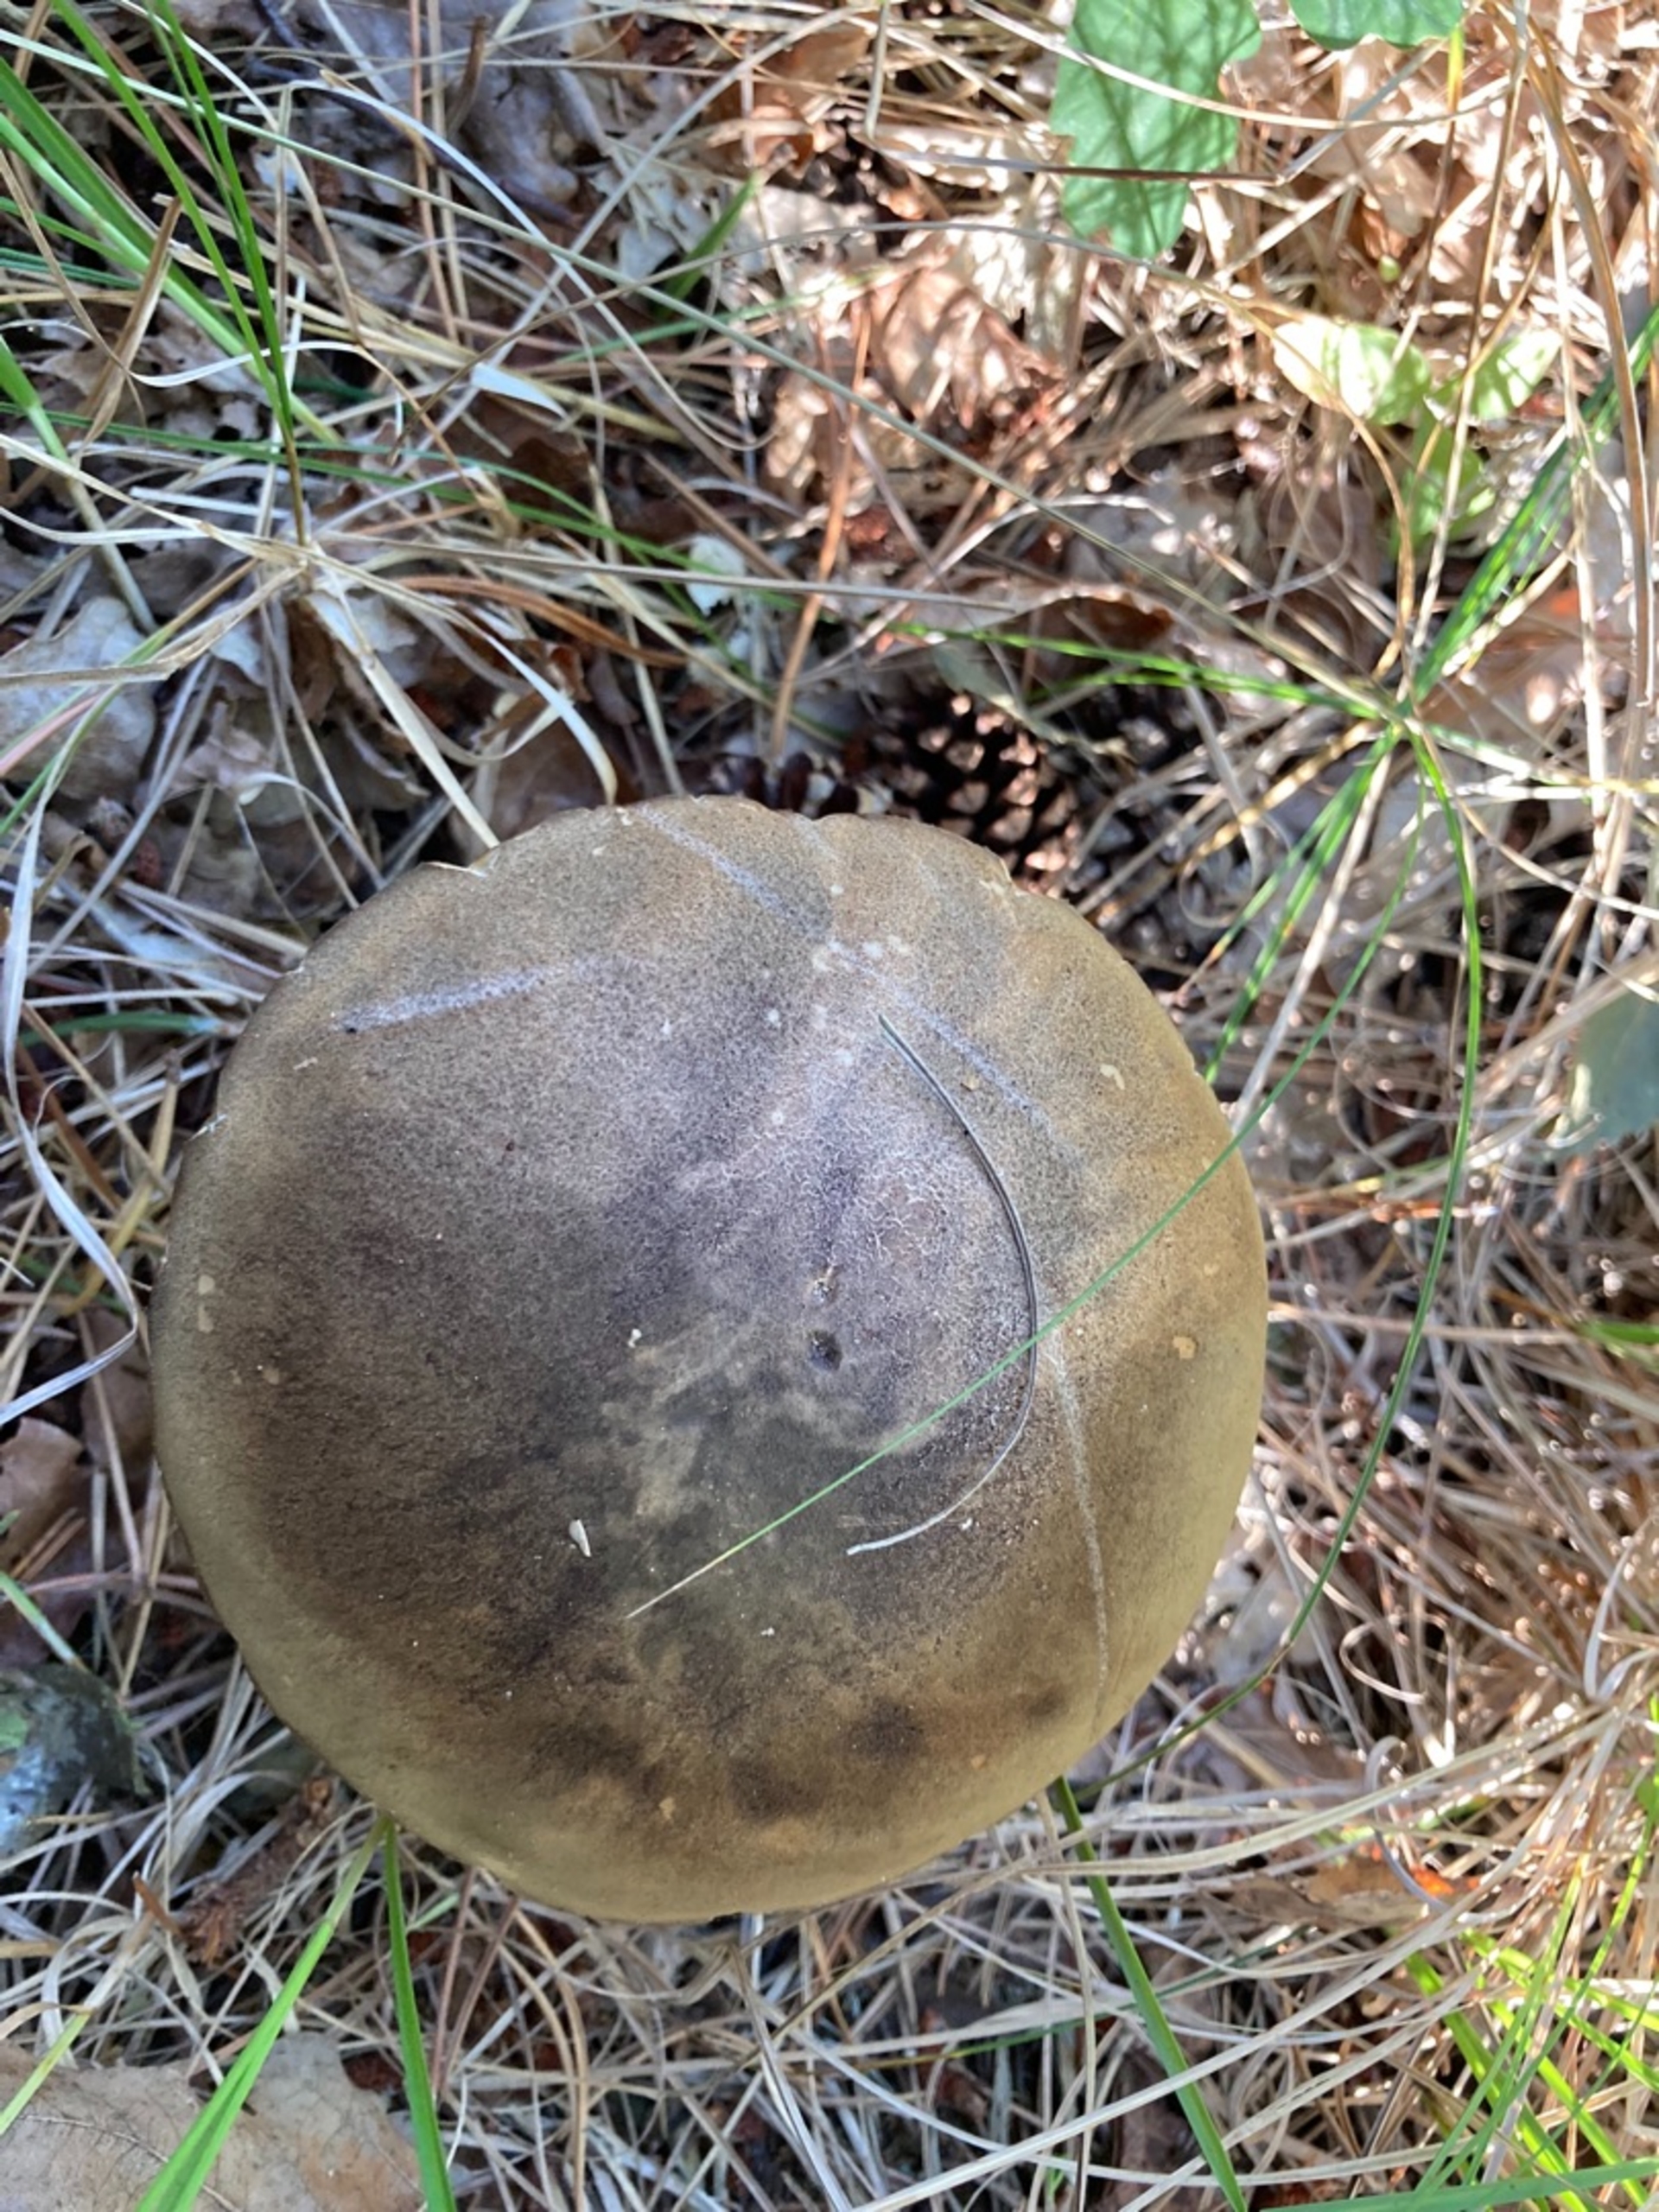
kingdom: Fungi
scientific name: Fungi
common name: Svamperiget
